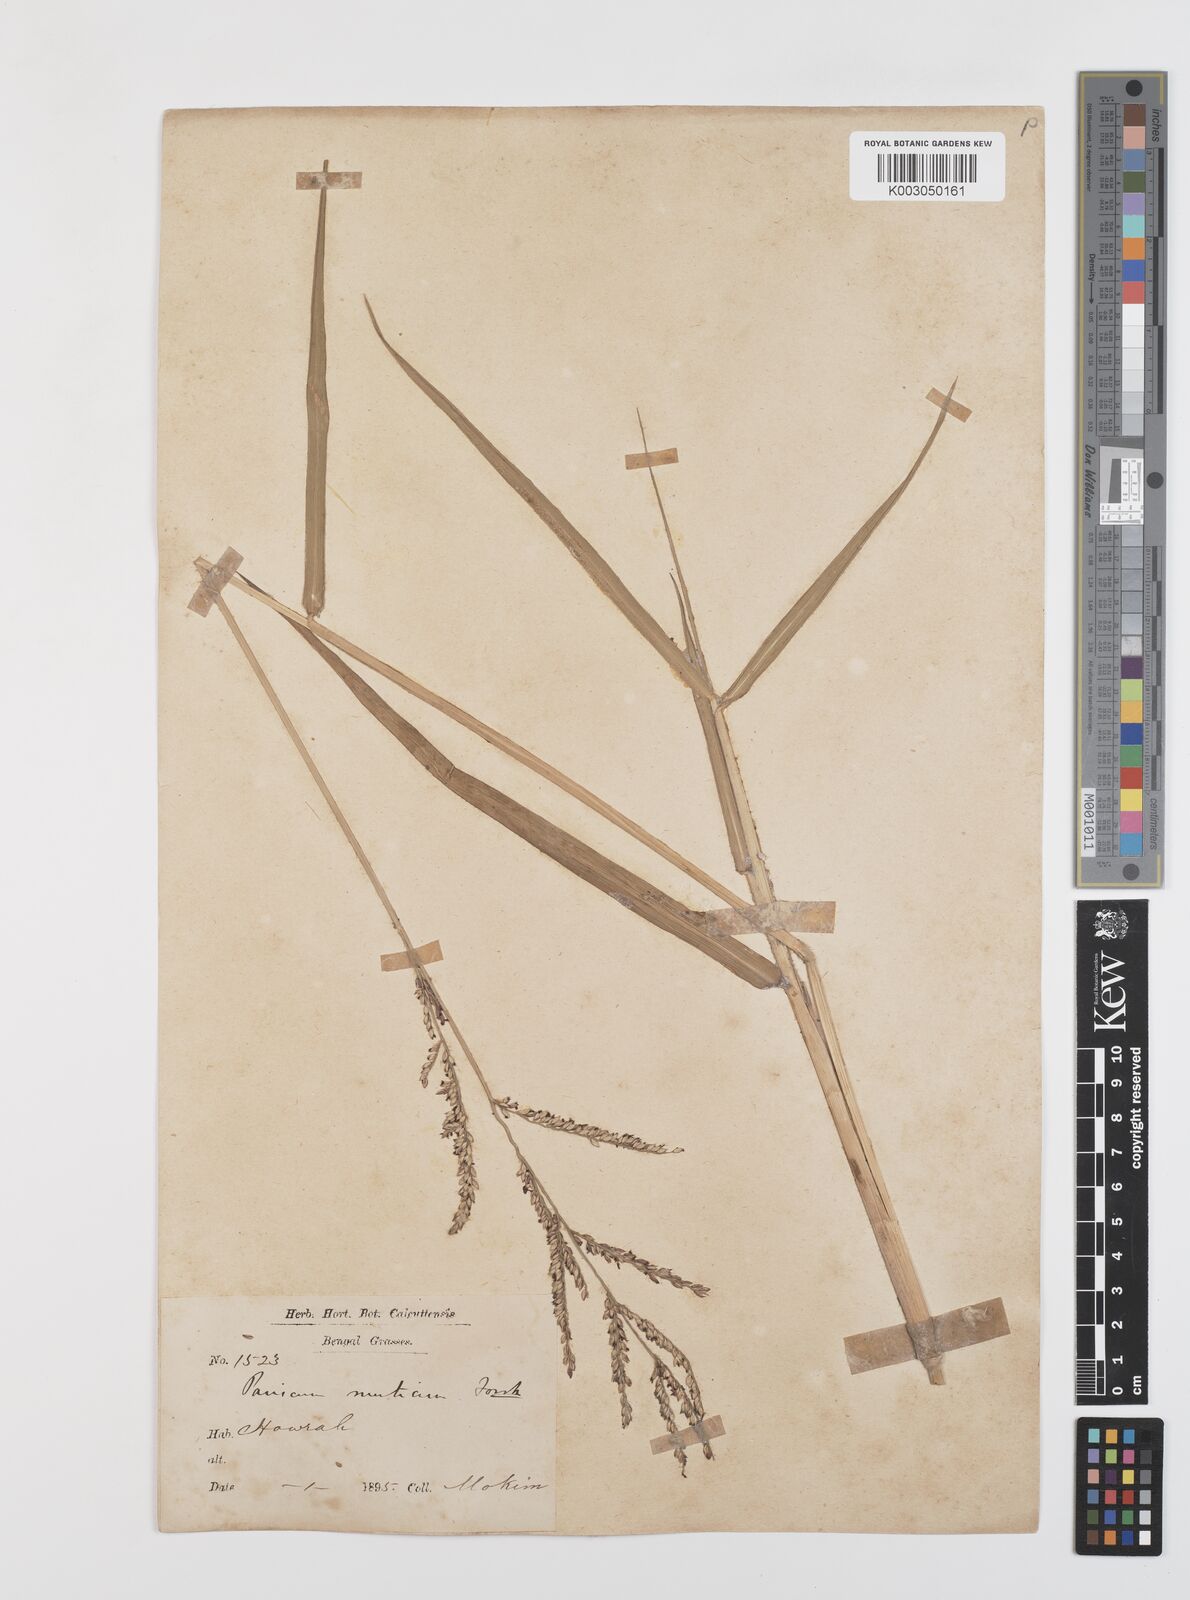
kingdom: Plantae
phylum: Tracheophyta
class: Liliopsida
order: Poales
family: Poaceae
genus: Urochloa
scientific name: Urochloa mutica
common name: Para grass
